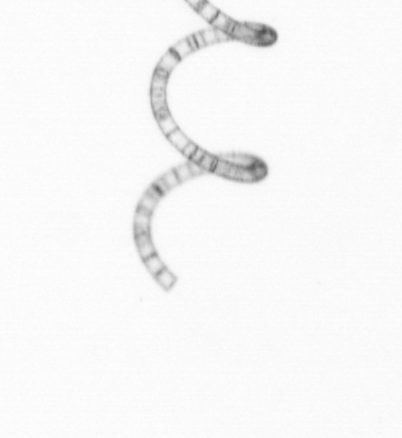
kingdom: Chromista
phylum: Ochrophyta
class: Bacillariophyceae
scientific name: Bacillariophyceae
